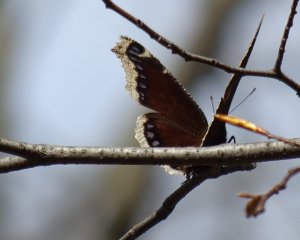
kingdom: Animalia
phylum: Arthropoda
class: Insecta
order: Lepidoptera
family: Nymphalidae
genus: Nymphalis
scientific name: Nymphalis antiopa
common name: Mourning Cloak
